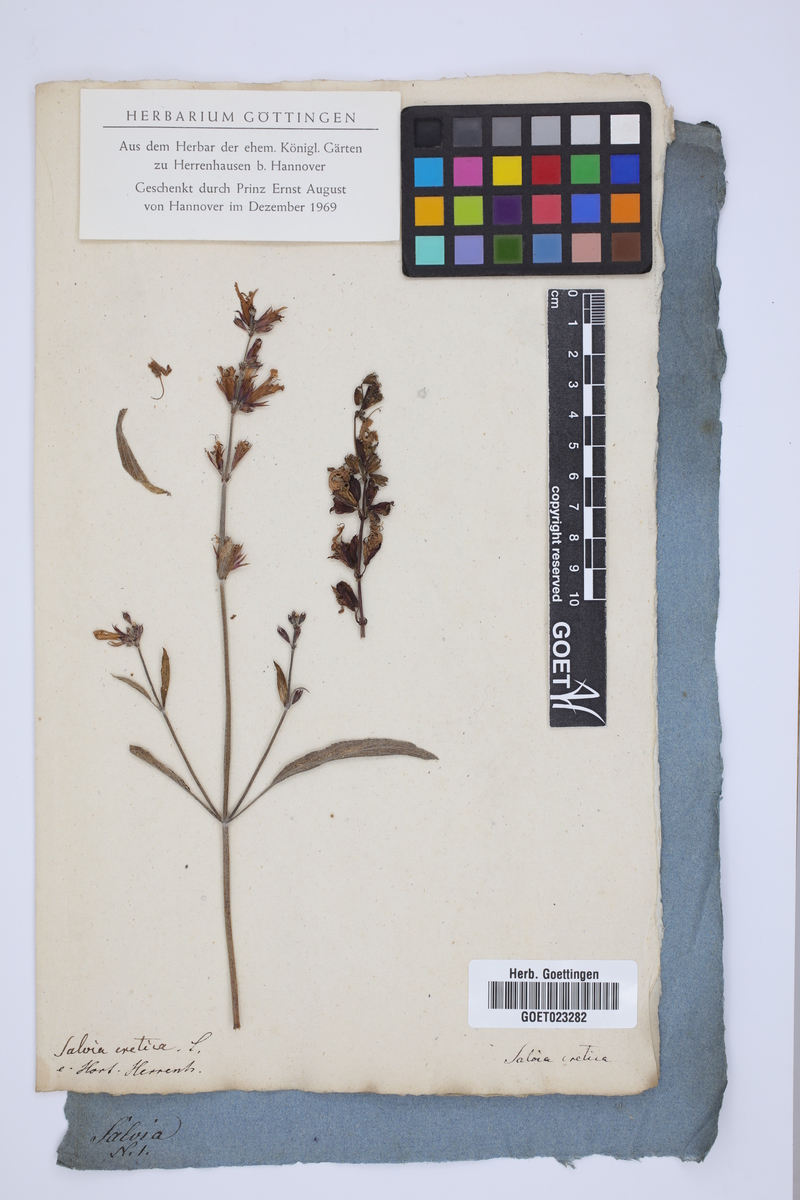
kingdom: Plantae
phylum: Tracheophyta
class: Magnoliopsida
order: Lamiales
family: Lamiaceae
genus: Salvia
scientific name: Salvia officinalis
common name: Sage
